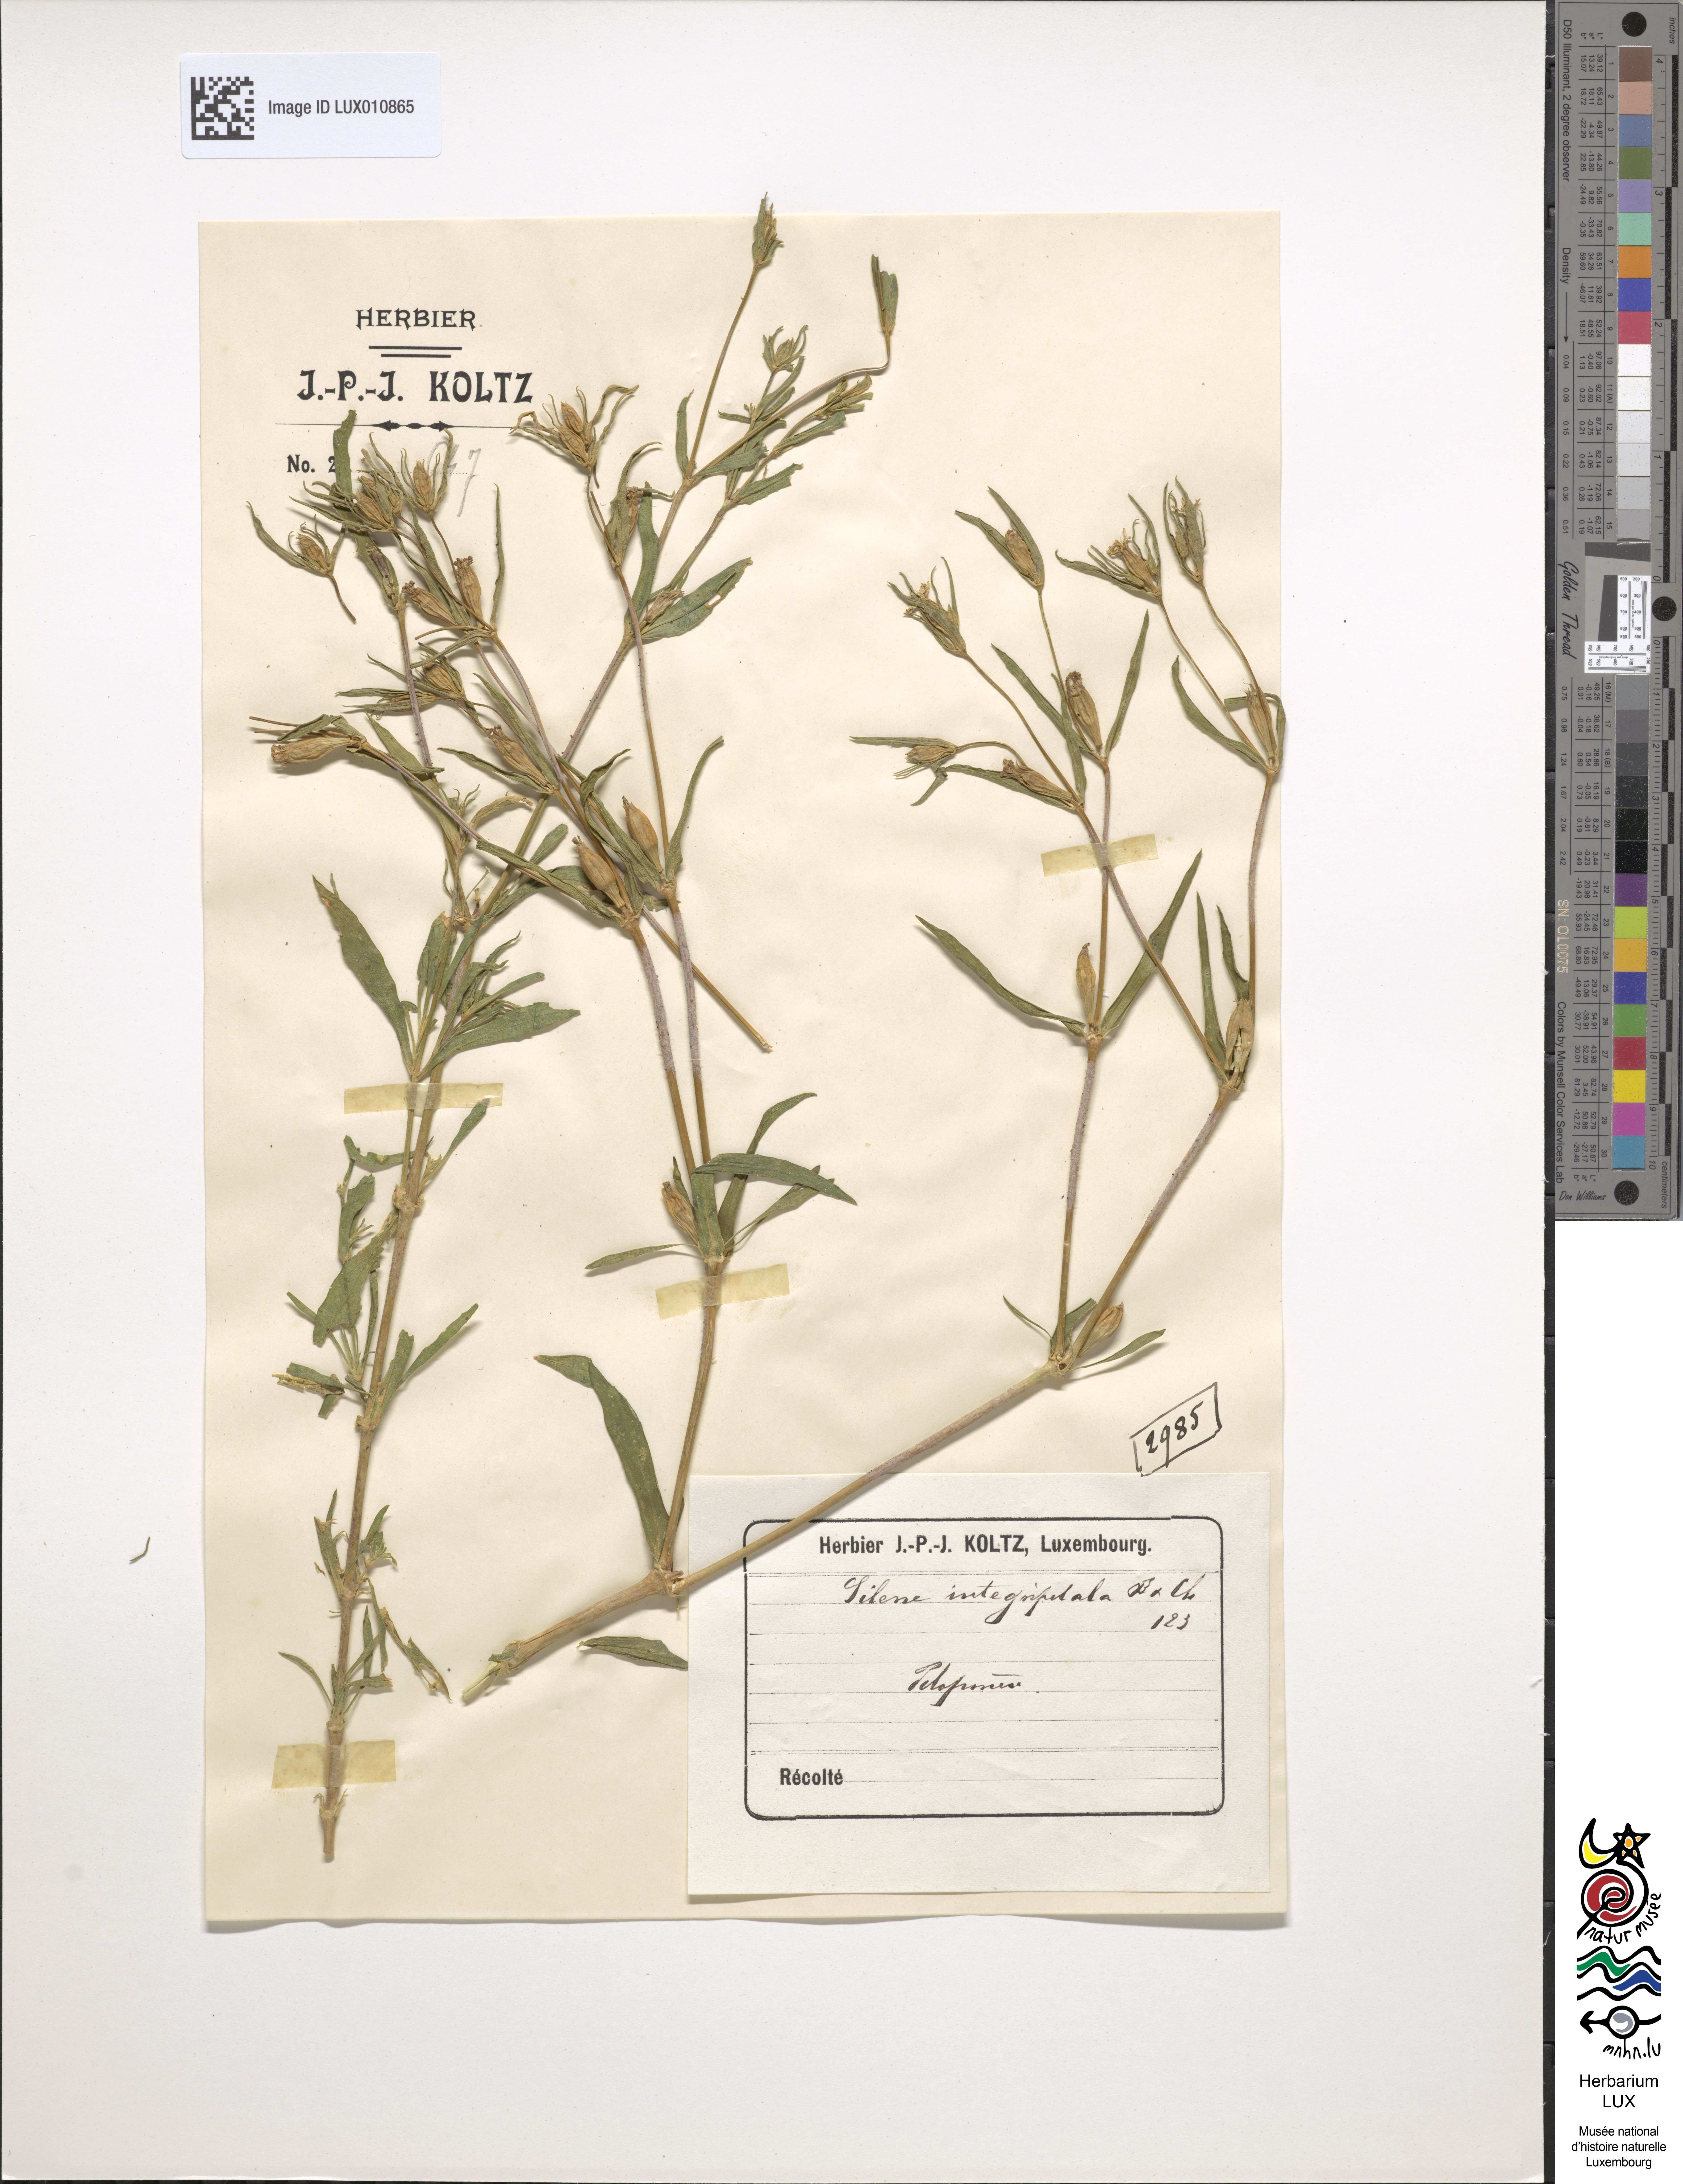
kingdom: Plantae
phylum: Tracheophyta
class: Magnoliopsida
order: Caryophyllales
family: Caryophyllaceae
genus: Silene
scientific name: Silene integripetala
